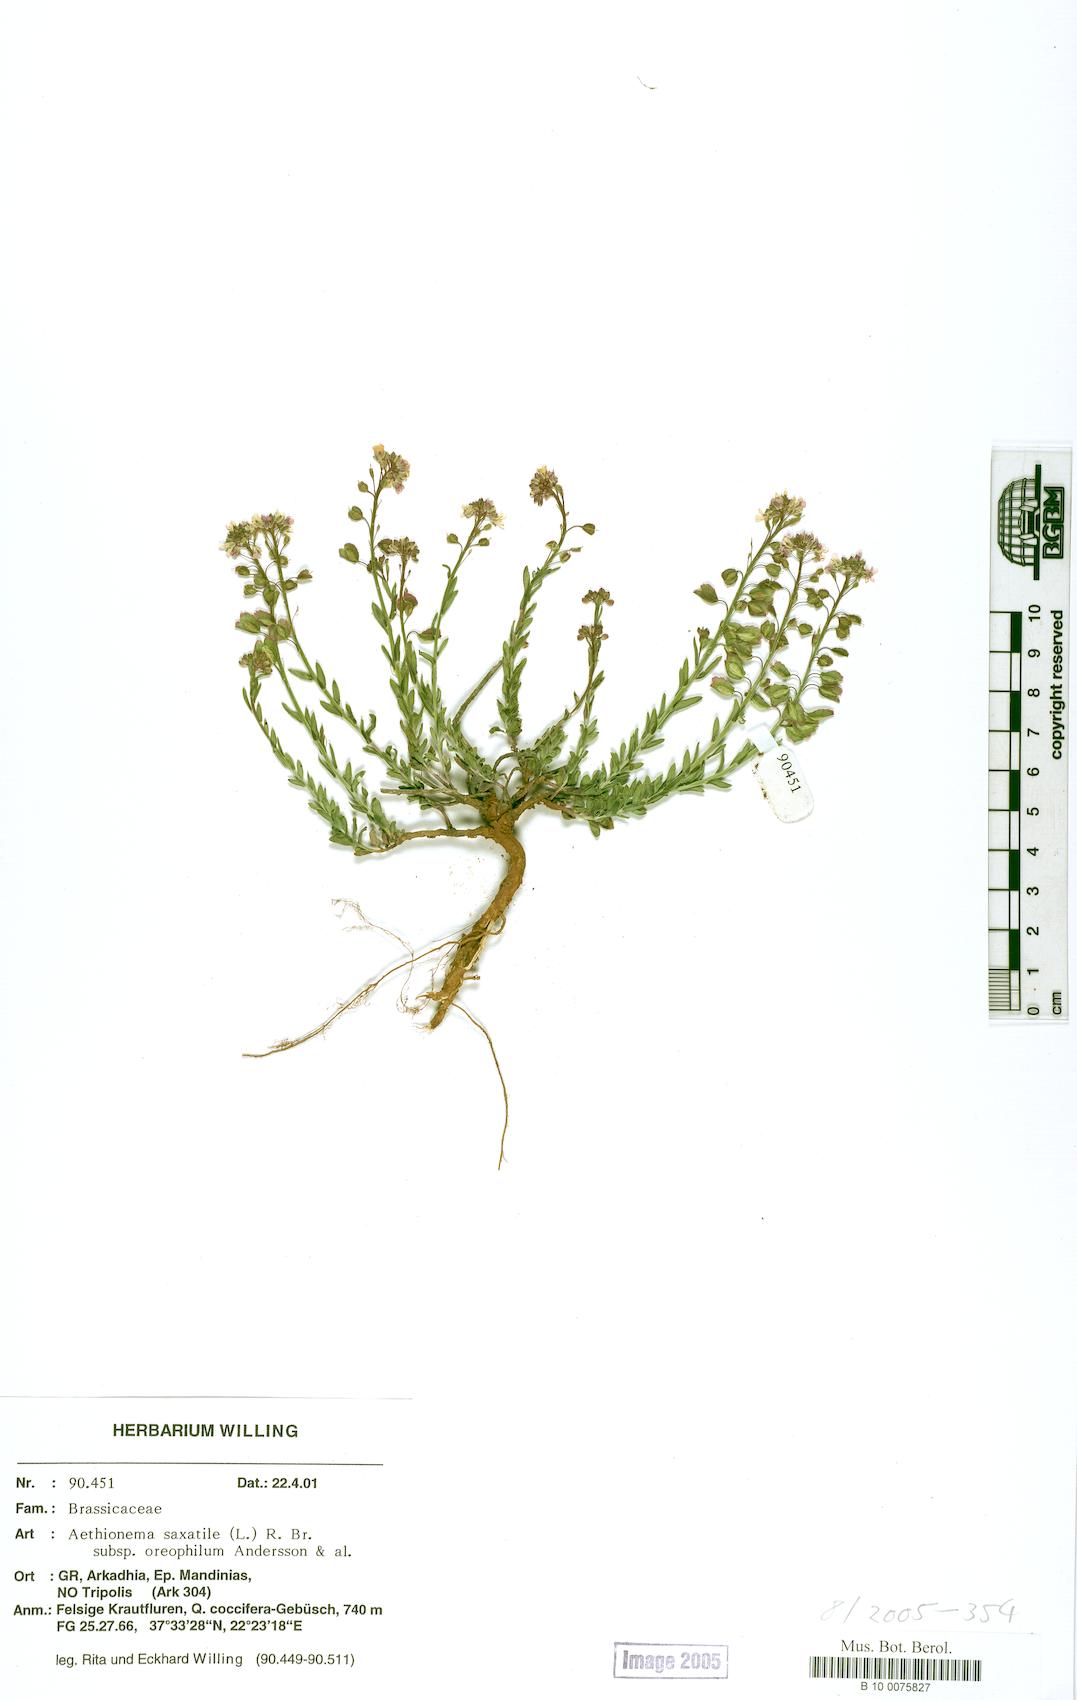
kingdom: Plantae
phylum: Tracheophyta
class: Magnoliopsida
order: Brassicales
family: Brassicaceae
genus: Aethionema
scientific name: Aethionema saxatile
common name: Burnt candytuft
